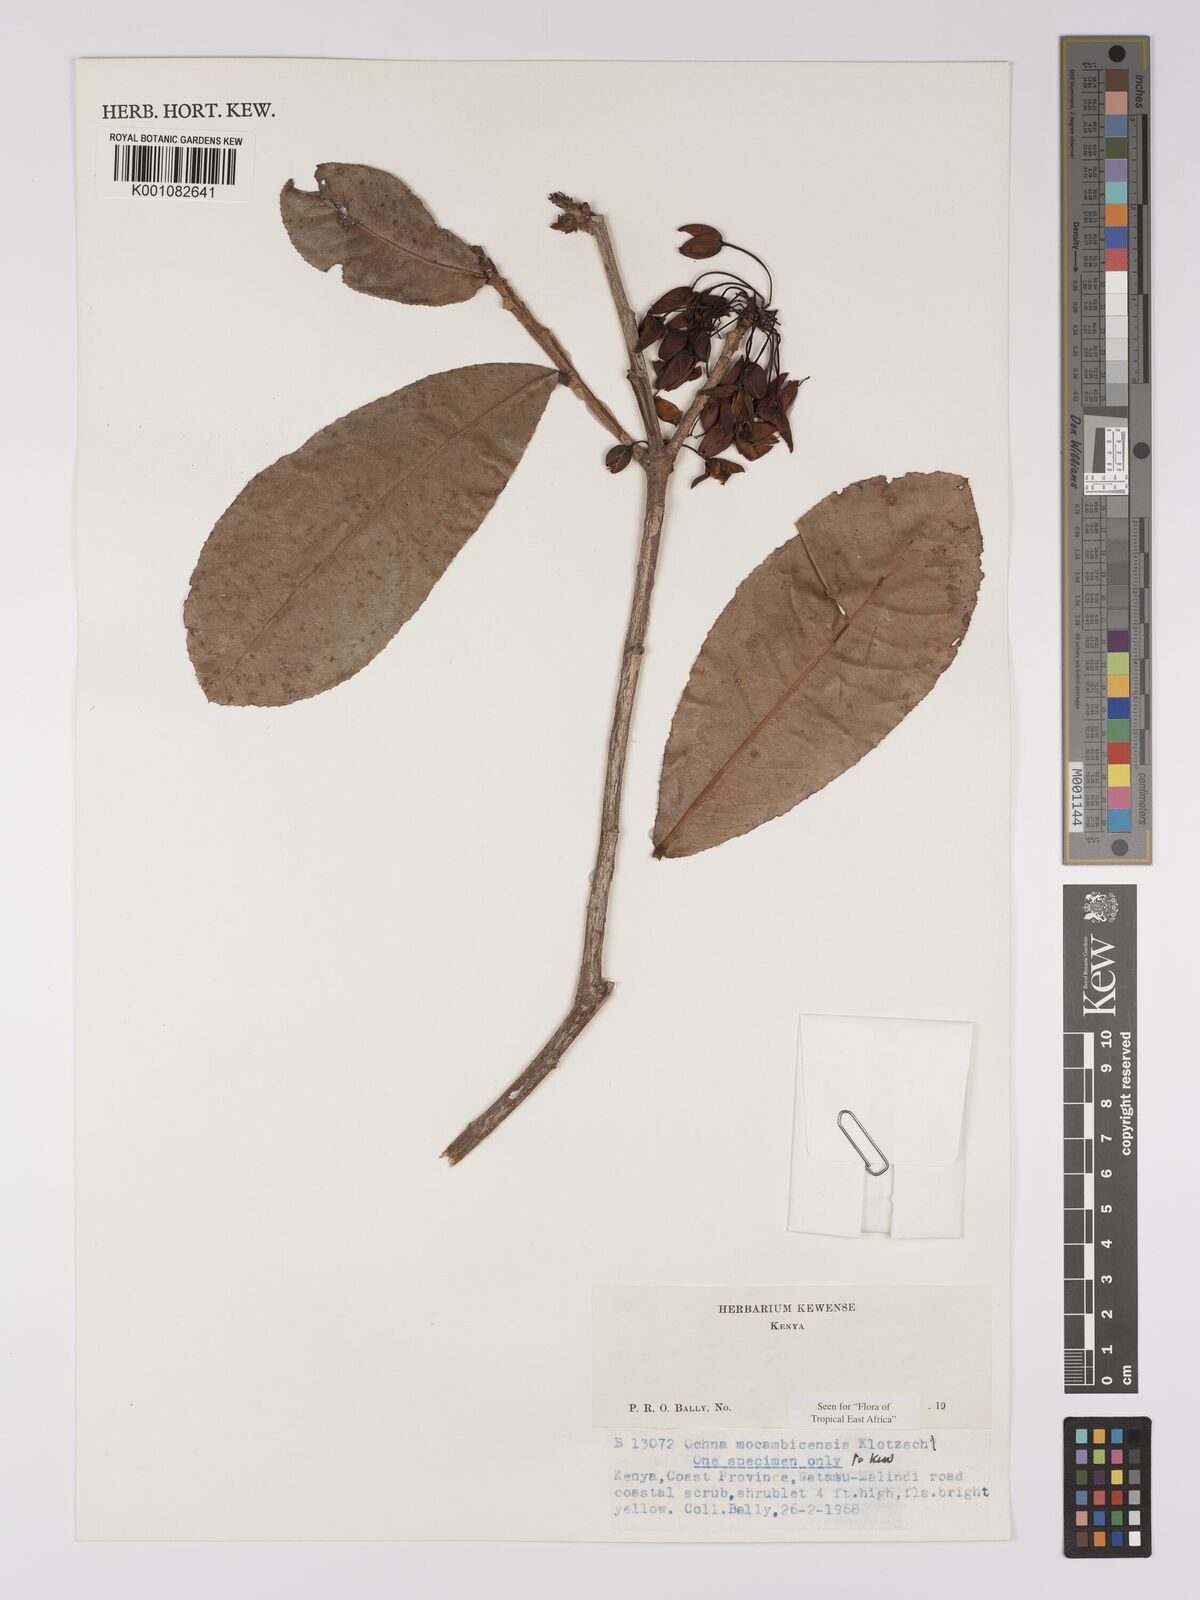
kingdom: Plantae
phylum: Tracheophyta
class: Magnoliopsida
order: Malpighiales
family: Ochnaceae
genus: Ochna
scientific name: Ochna atropurpurea
